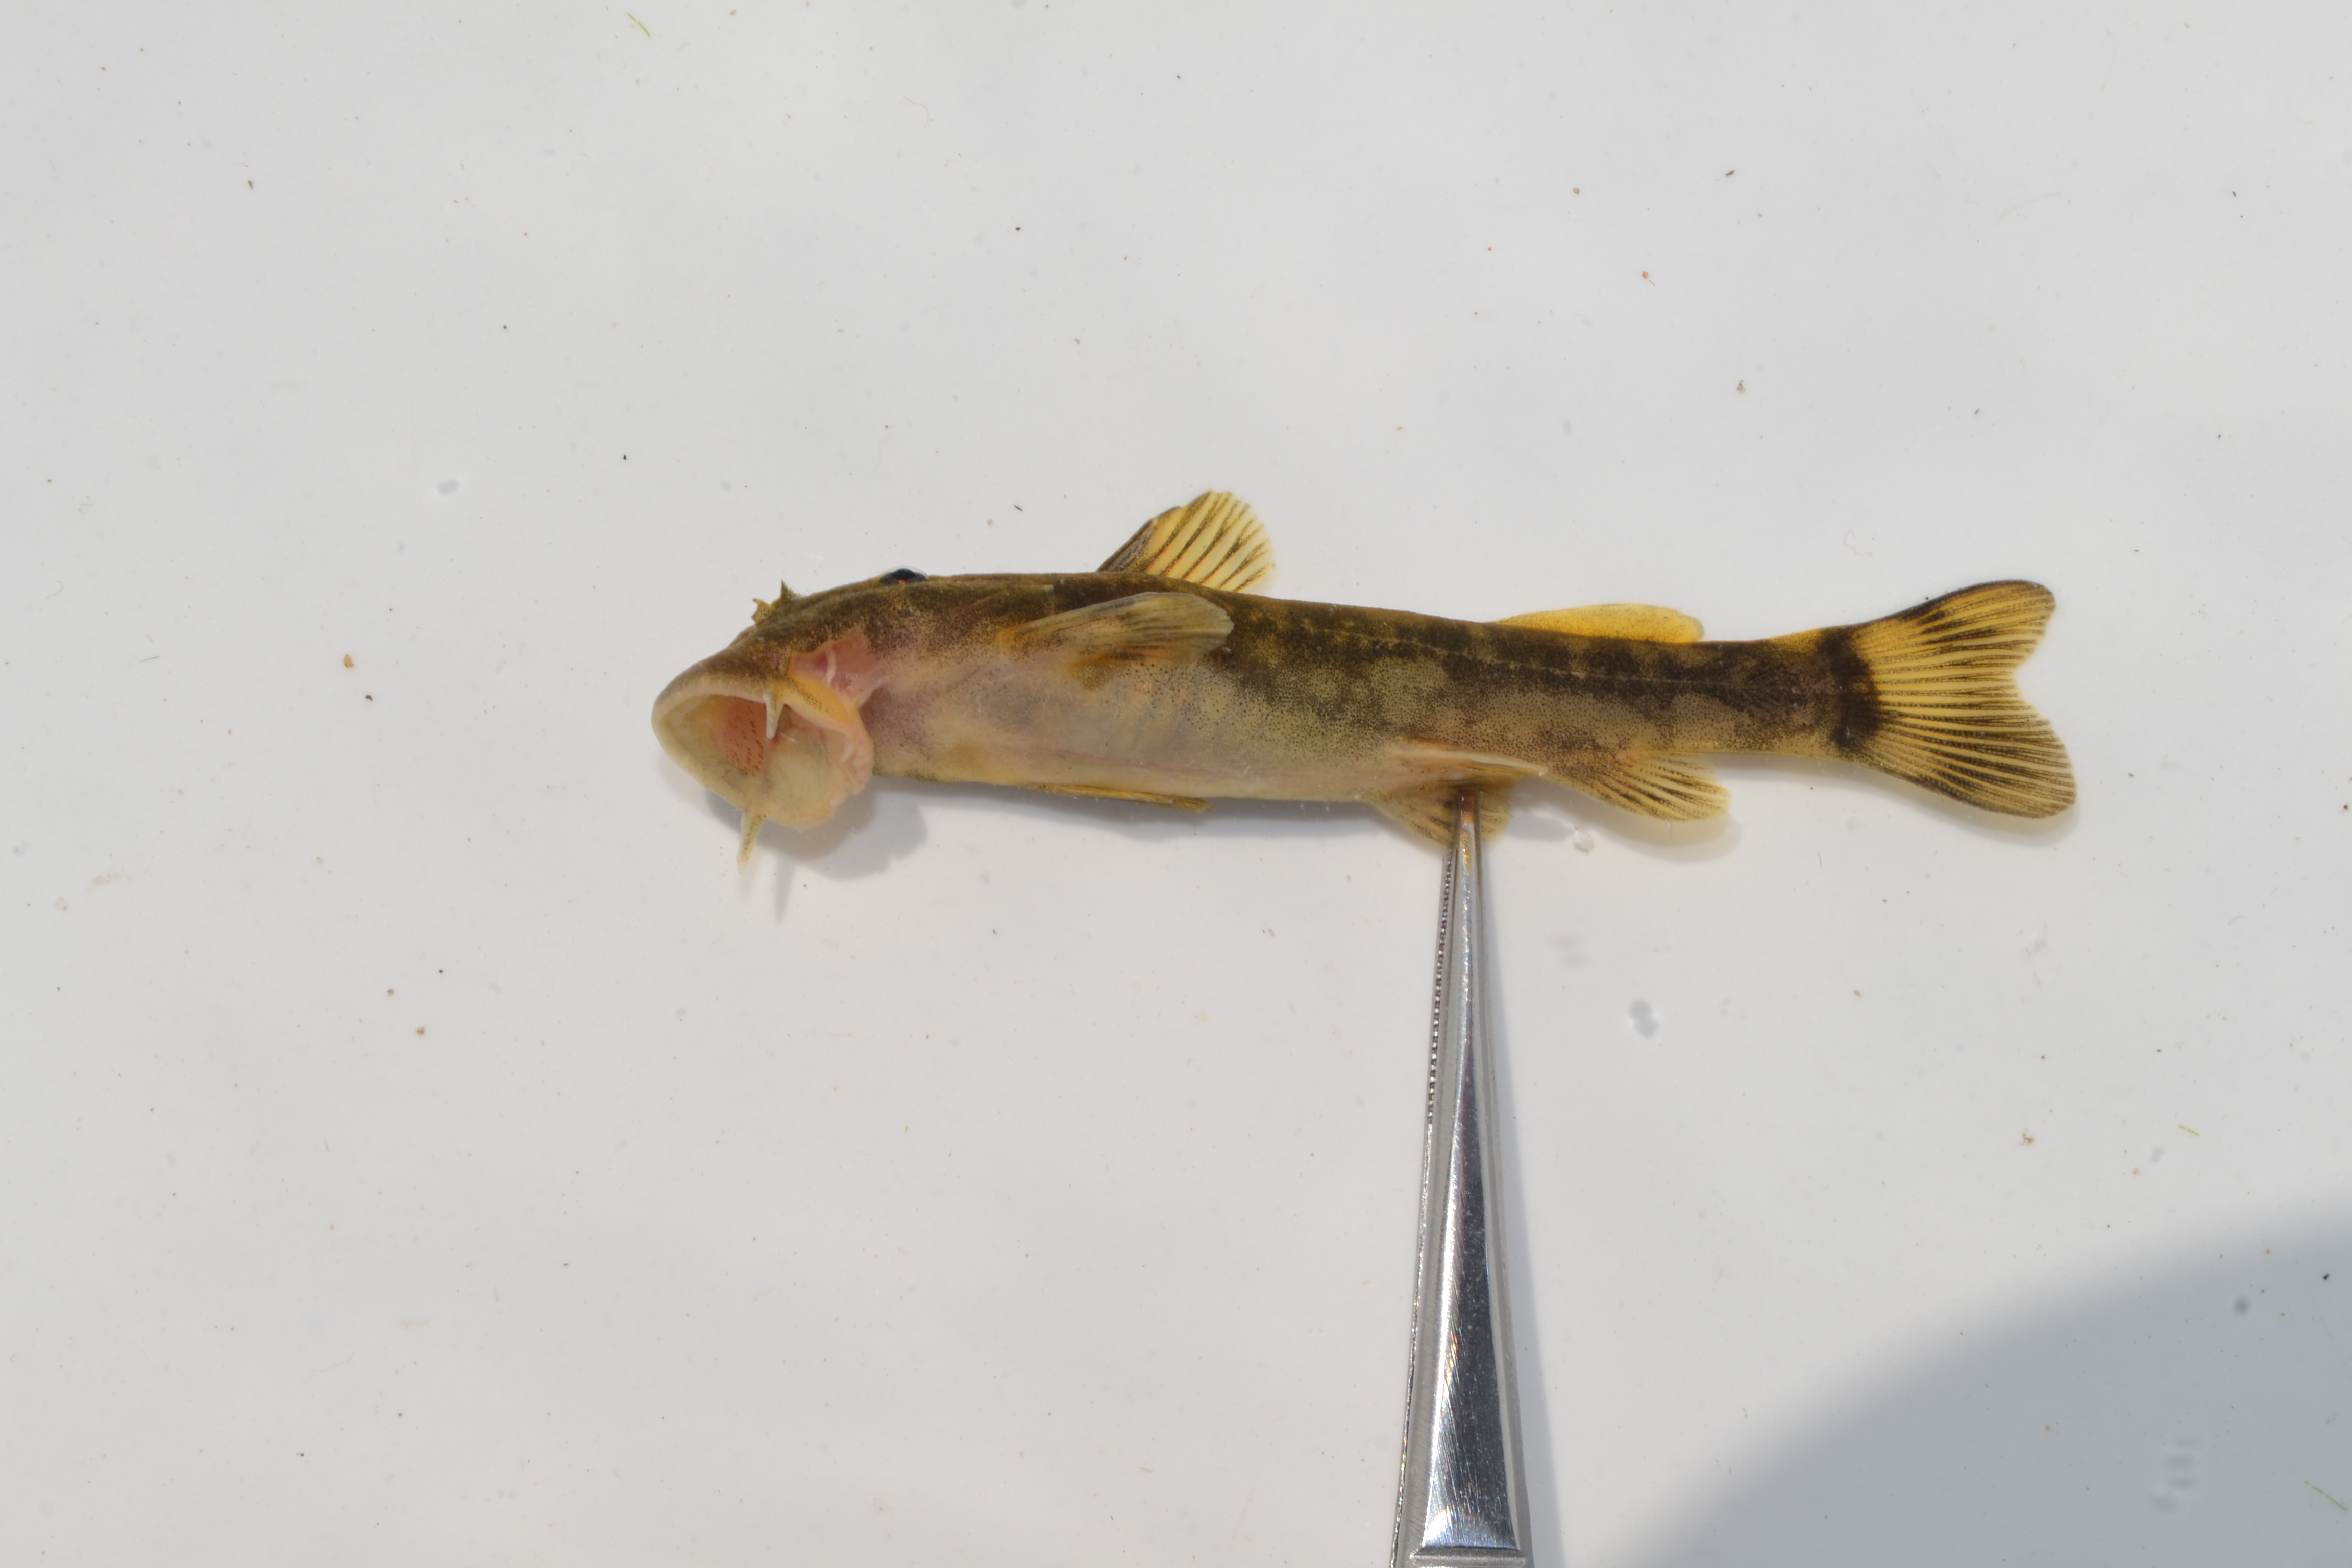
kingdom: Animalia
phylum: Chordata
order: Siluriformes
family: Mochokidae
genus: Chiloglanis
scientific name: Chiloglanis
